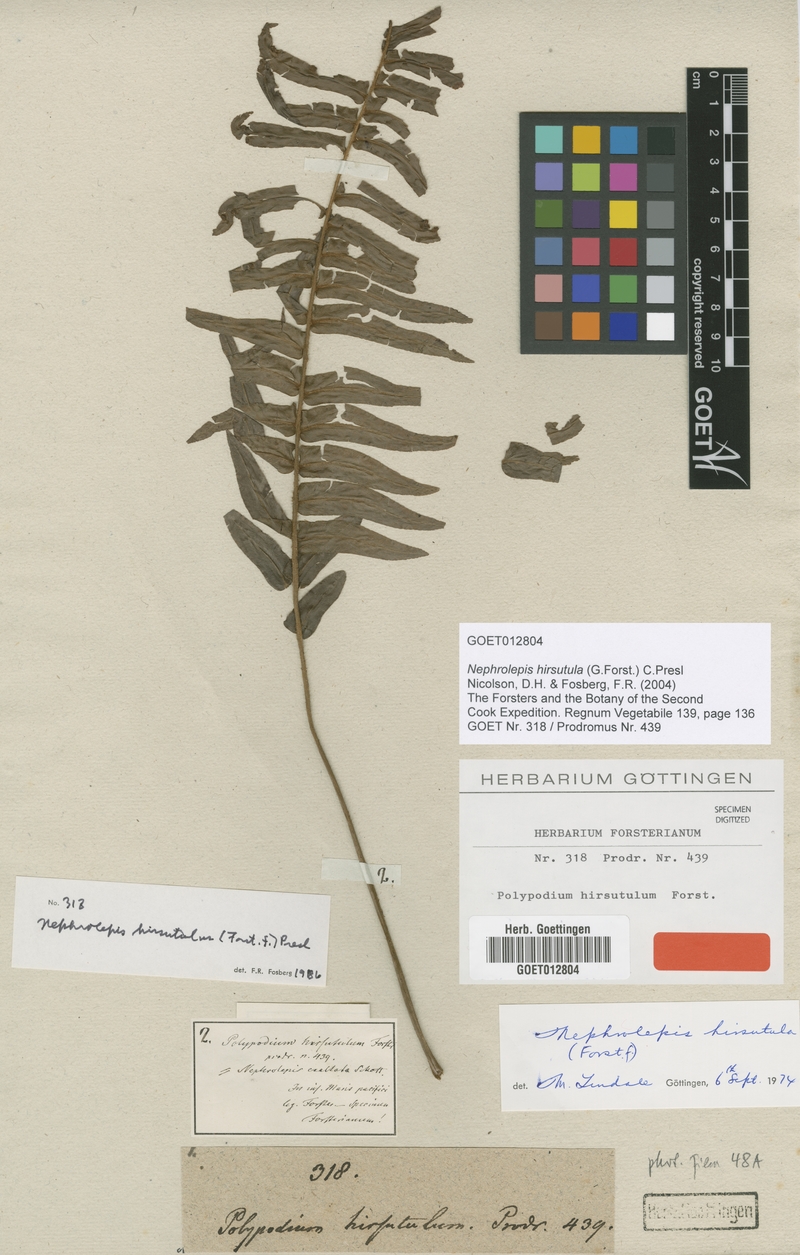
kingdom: Plantae
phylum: Tracheophyta
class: Polypodiopsida
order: Polypodiales
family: Nephrolepidaceae
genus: Nephrolepis
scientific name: Nephrolepis hirsutula
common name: Asian sword fern
